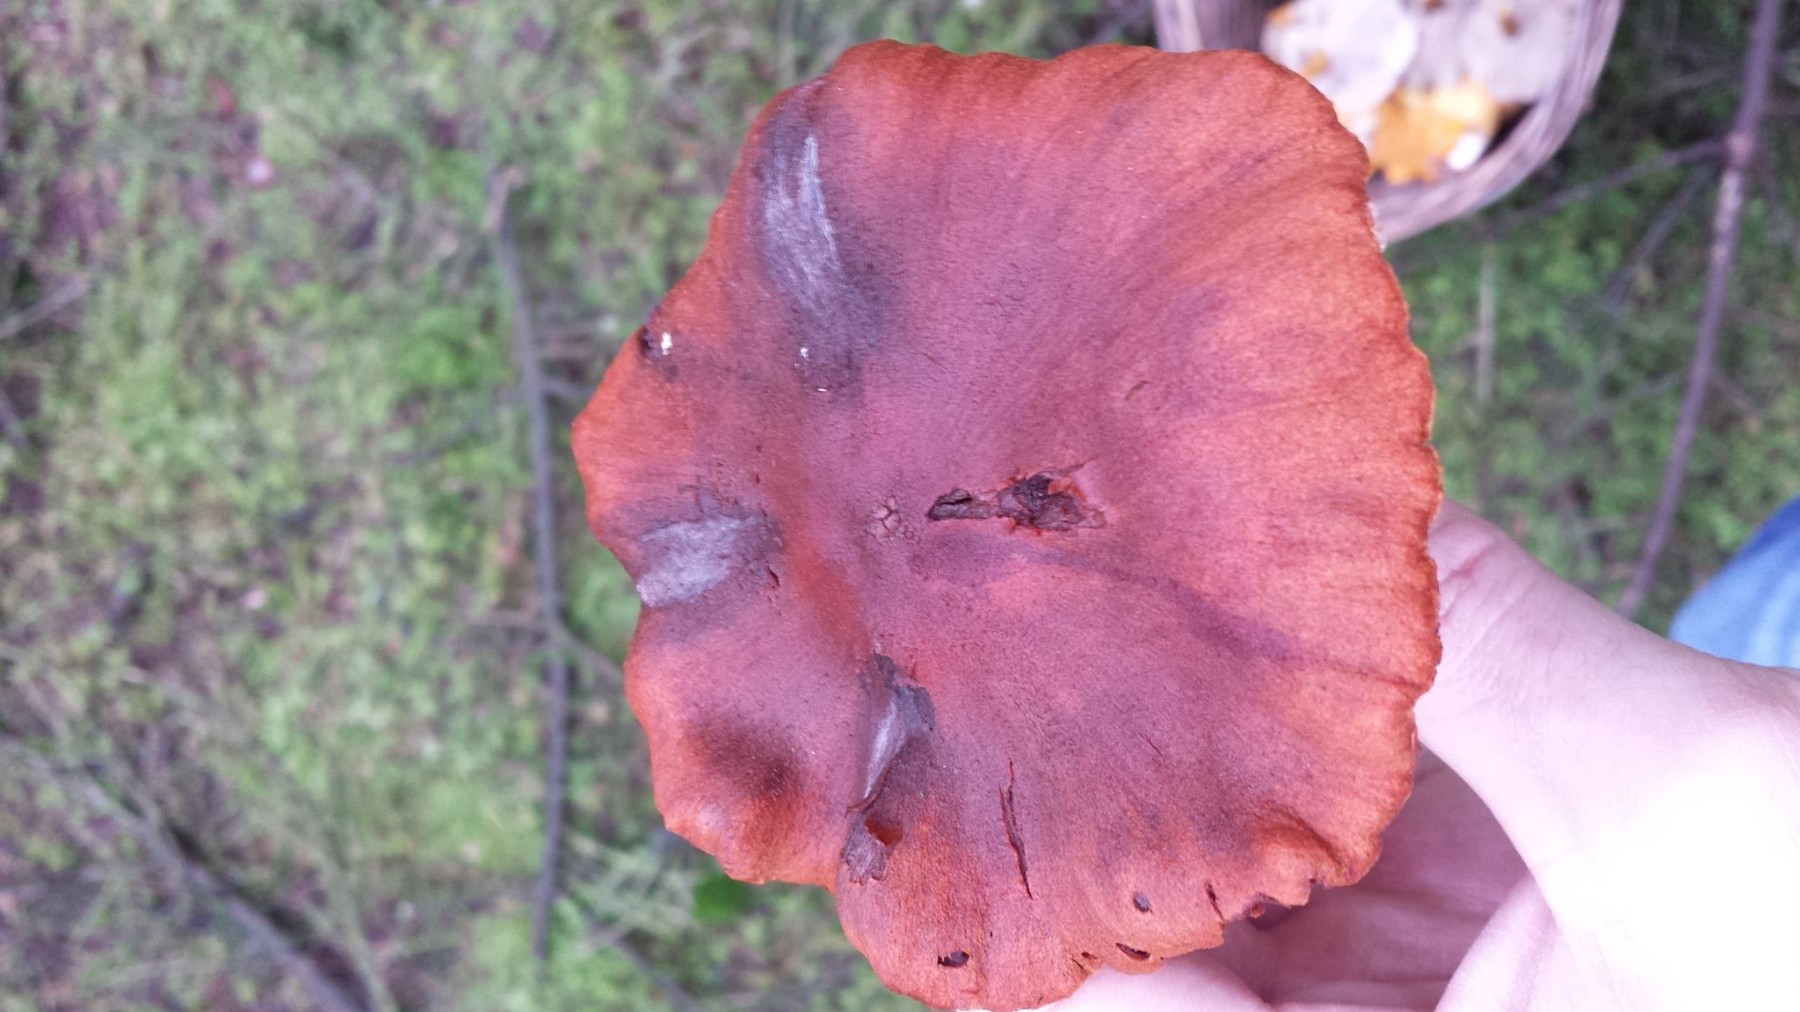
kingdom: Fungi
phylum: Basidiomycota
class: Agaricomycetes
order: Agaricales
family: Cortinariaceae
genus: Cortinarius
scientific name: Cortinarius rubellus
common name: puklet gift-slørhat
